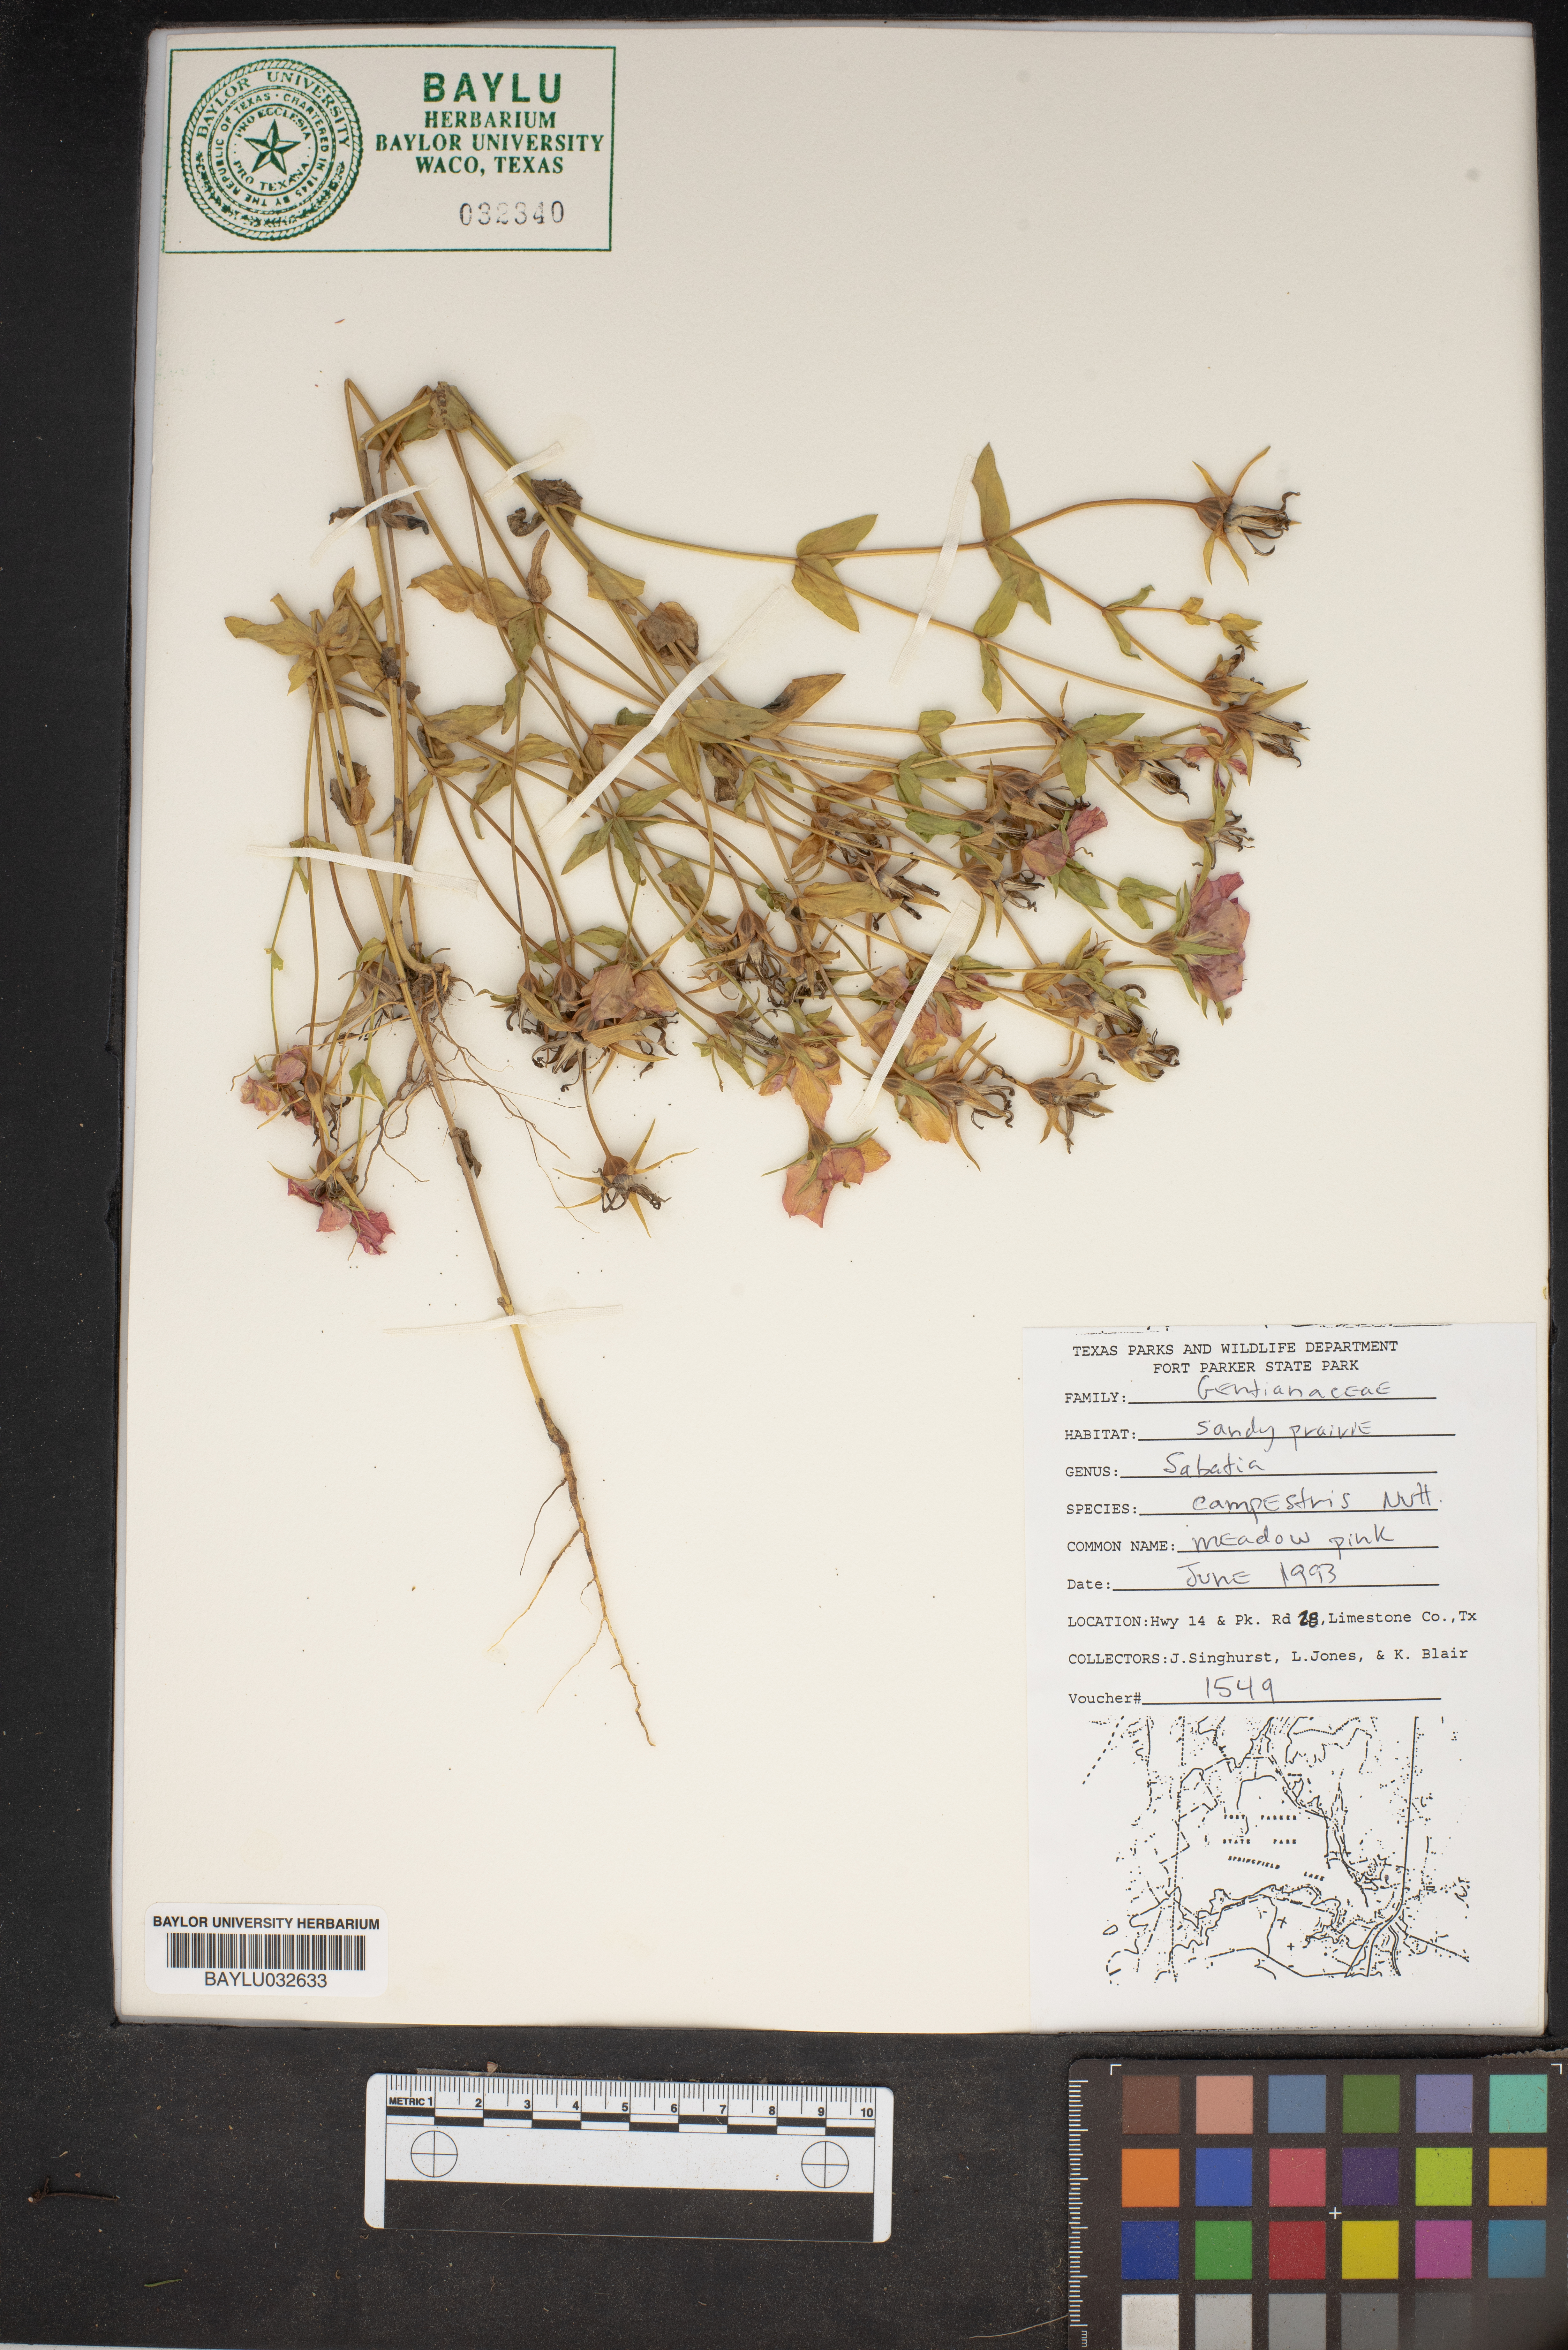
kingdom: Plantae
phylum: Tracheophyta
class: Magnoliopsida
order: Gentianales
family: Gentianaceae
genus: Sabatia
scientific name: Sabatia campestris
